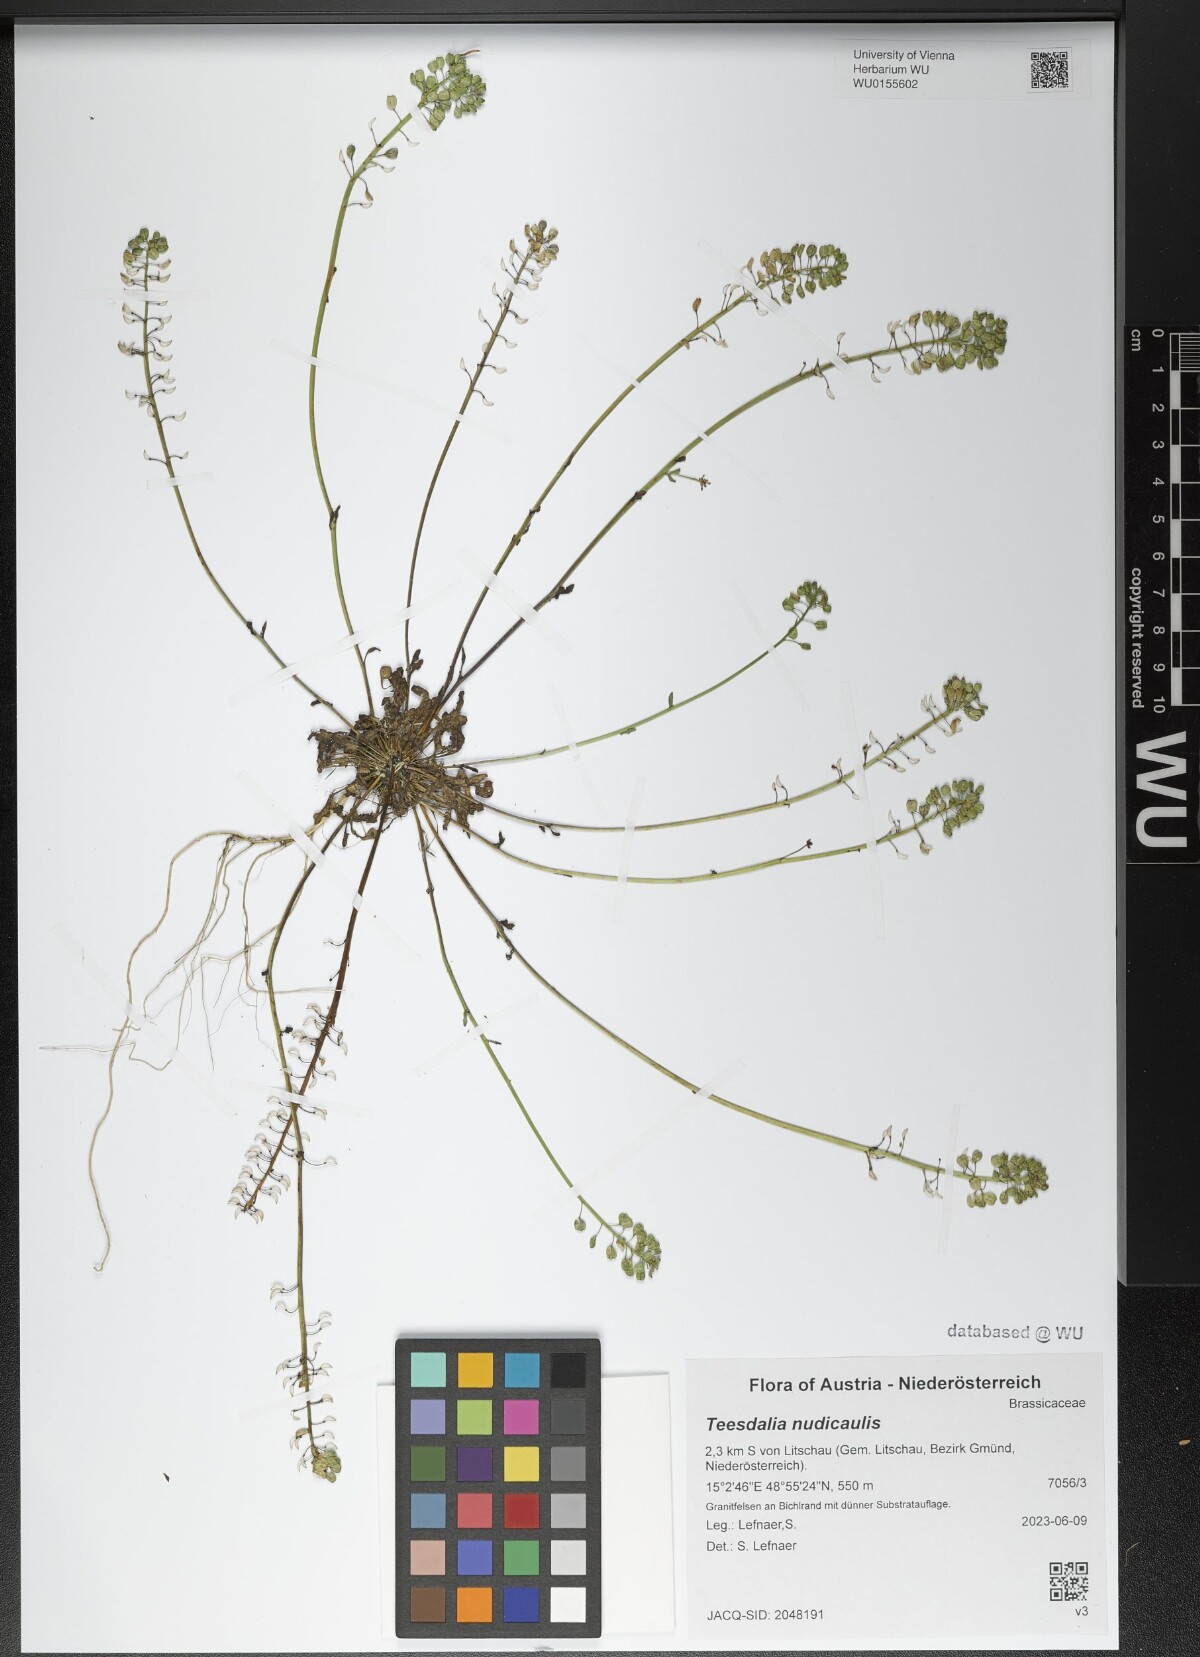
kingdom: Plantae
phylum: Tracheophyta
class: Magnoliopsida
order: Brassicales
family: Brassicaceae
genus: Teesdalia
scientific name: Teesdalia nudicaulis
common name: Shepherd's cress
